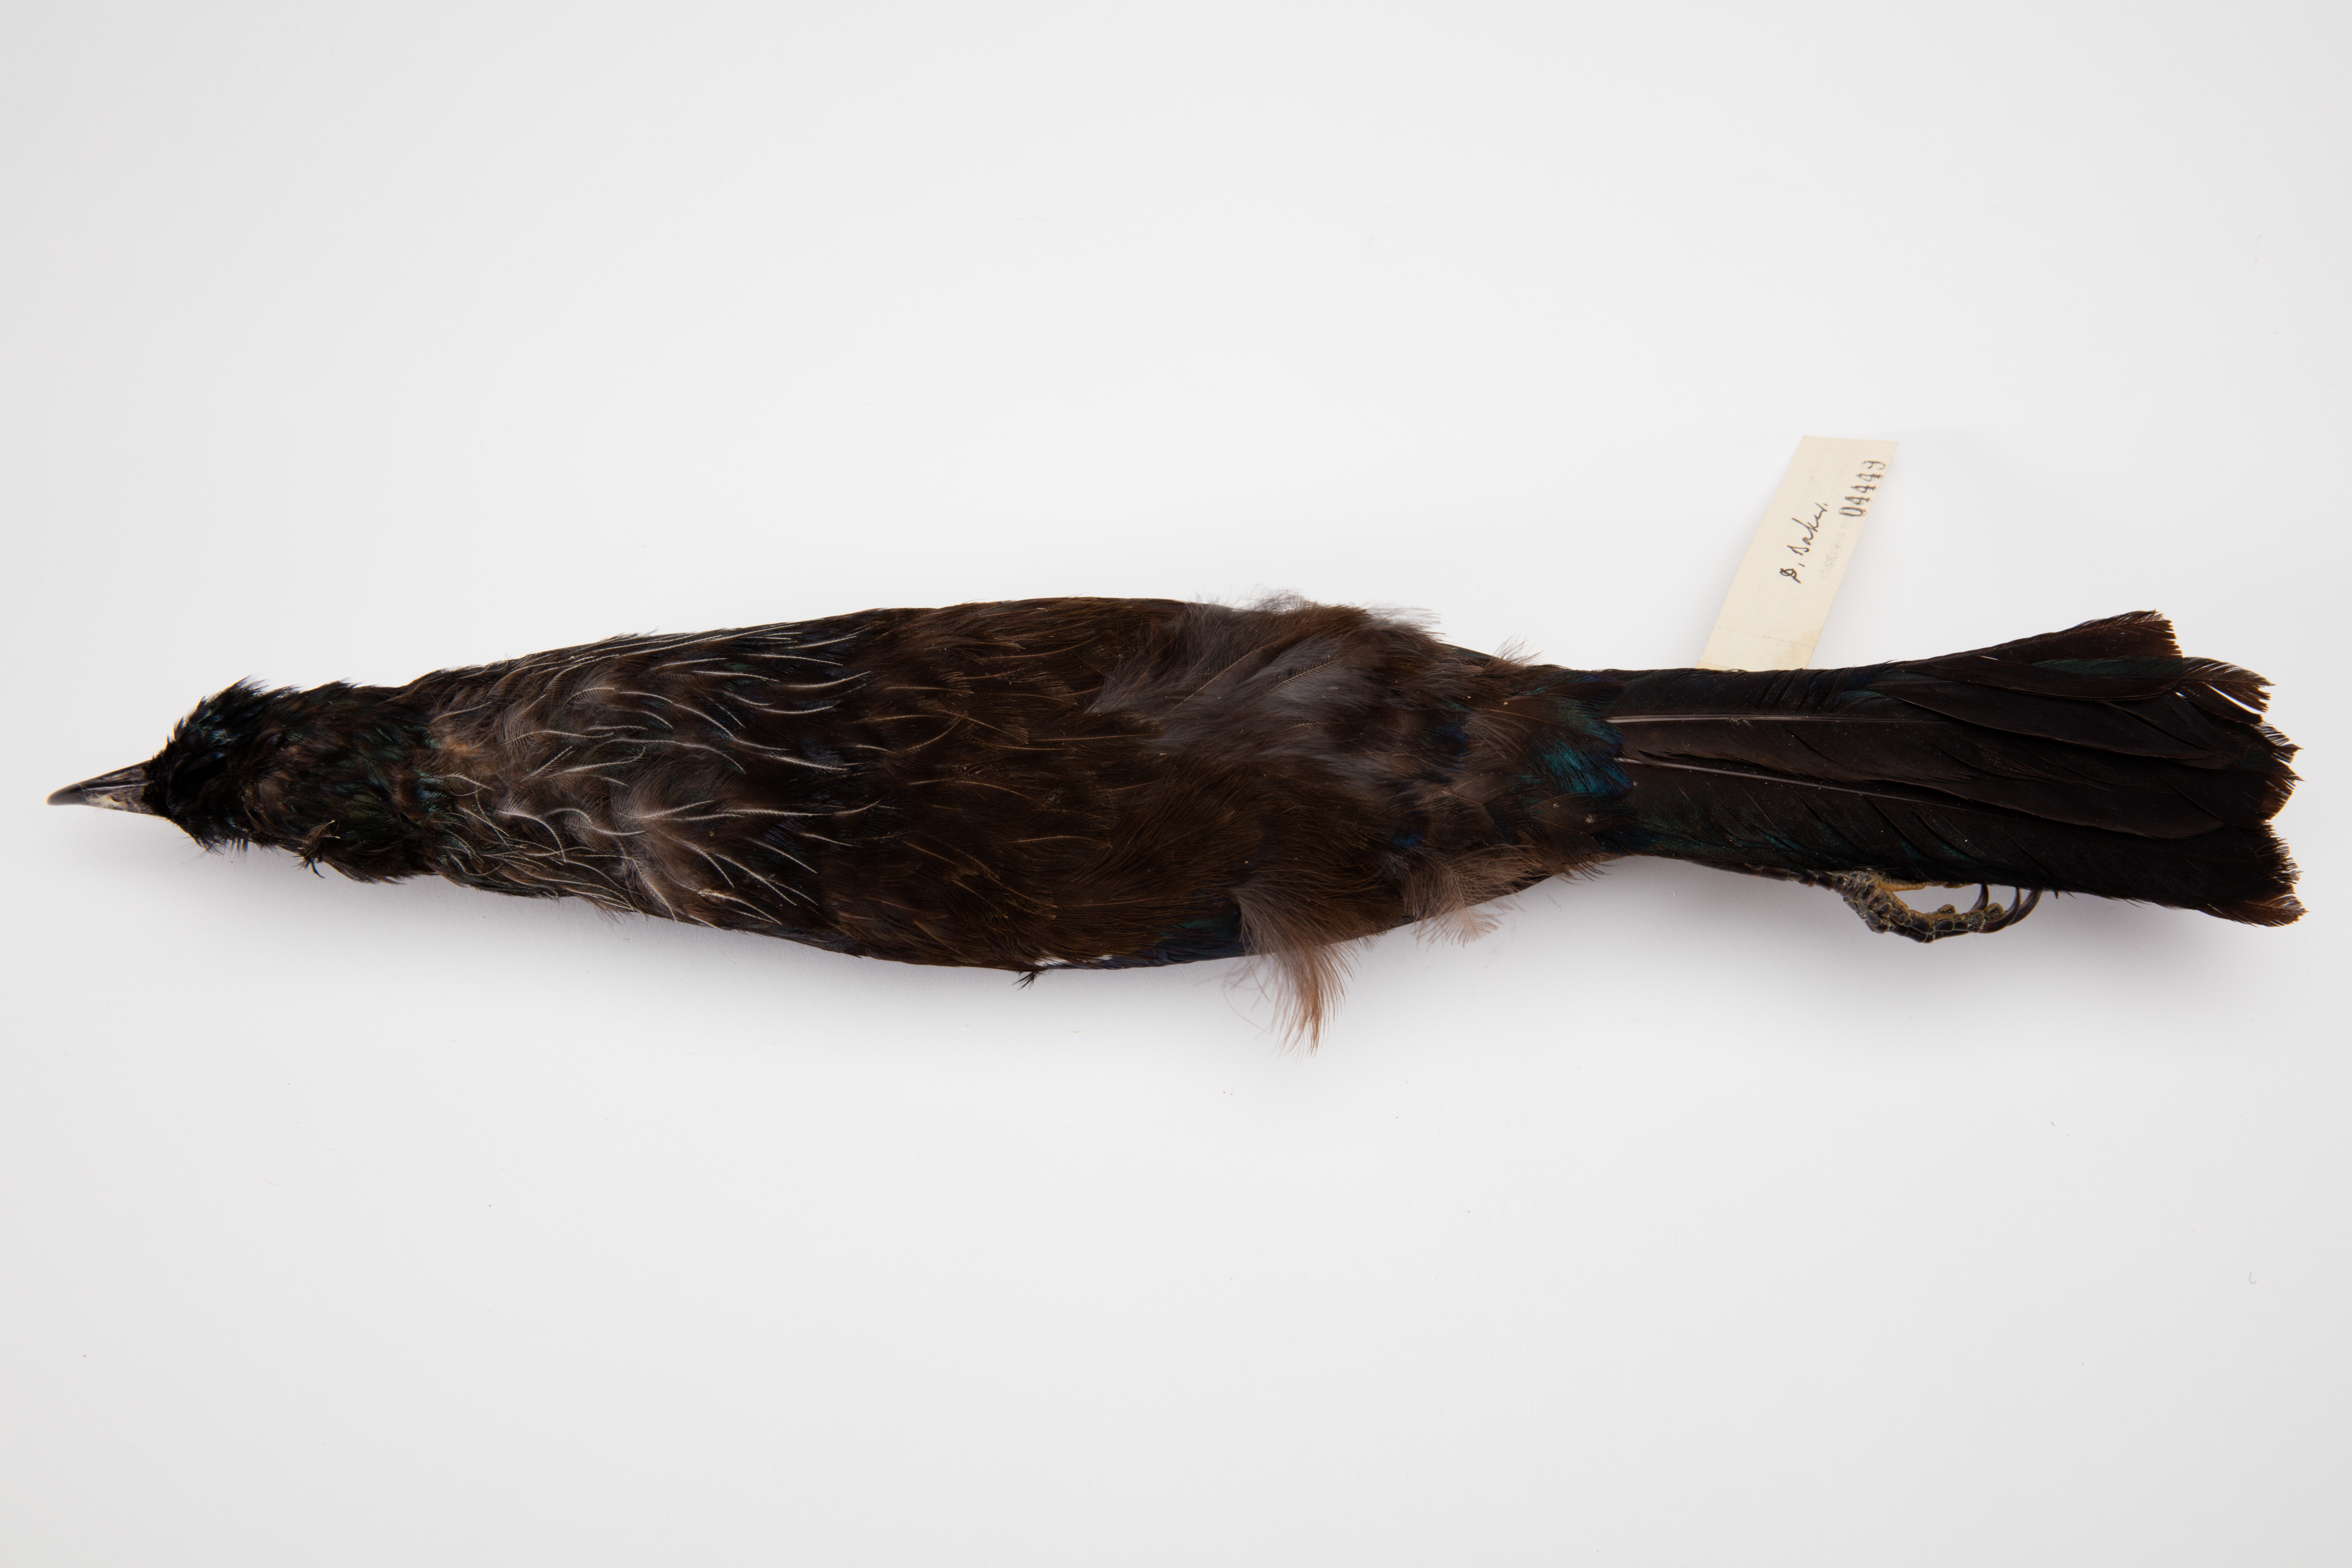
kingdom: Animalia
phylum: Chordata
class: Aves
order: Passeriformes
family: Meliphagidae
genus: Prosthemadera
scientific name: Prosthemadera novaeseelandiae
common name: Tui
